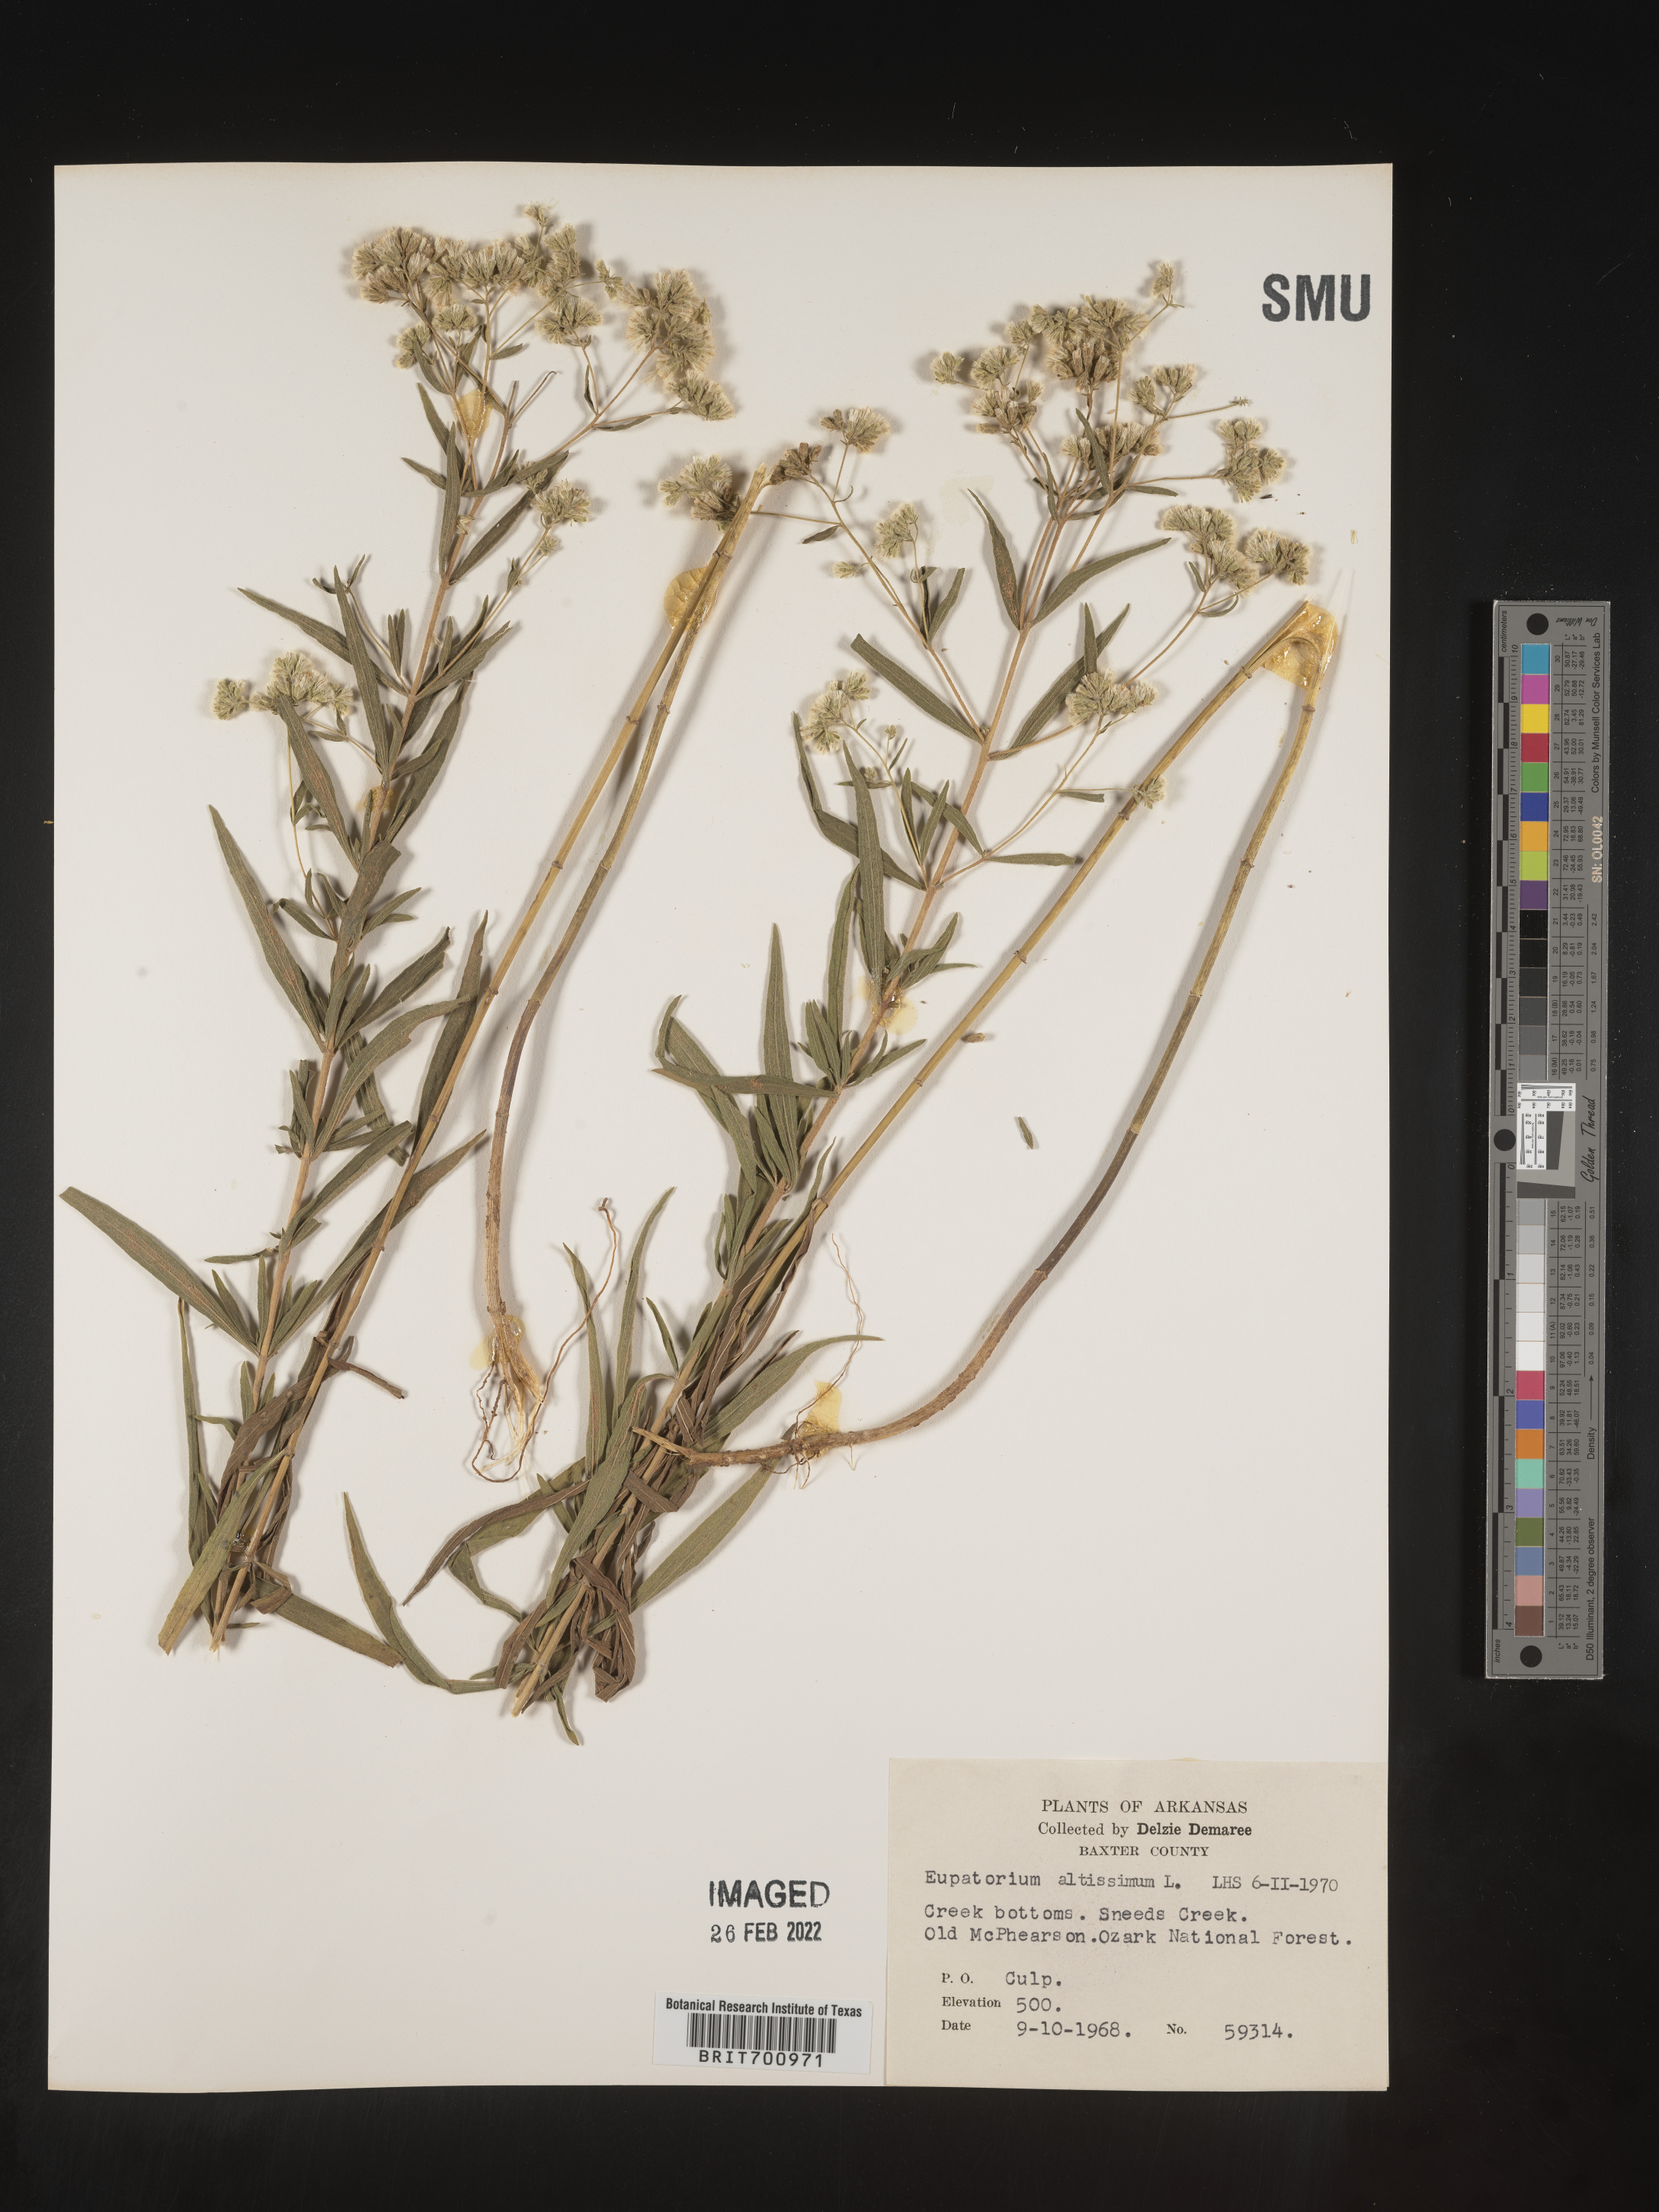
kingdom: Plantae
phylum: Tracheophyta
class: Magnoliopsida
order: Asterales
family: Asteraceae
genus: Eupatorium
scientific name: Eupatorium altissimum
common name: Tall thoroughwort
